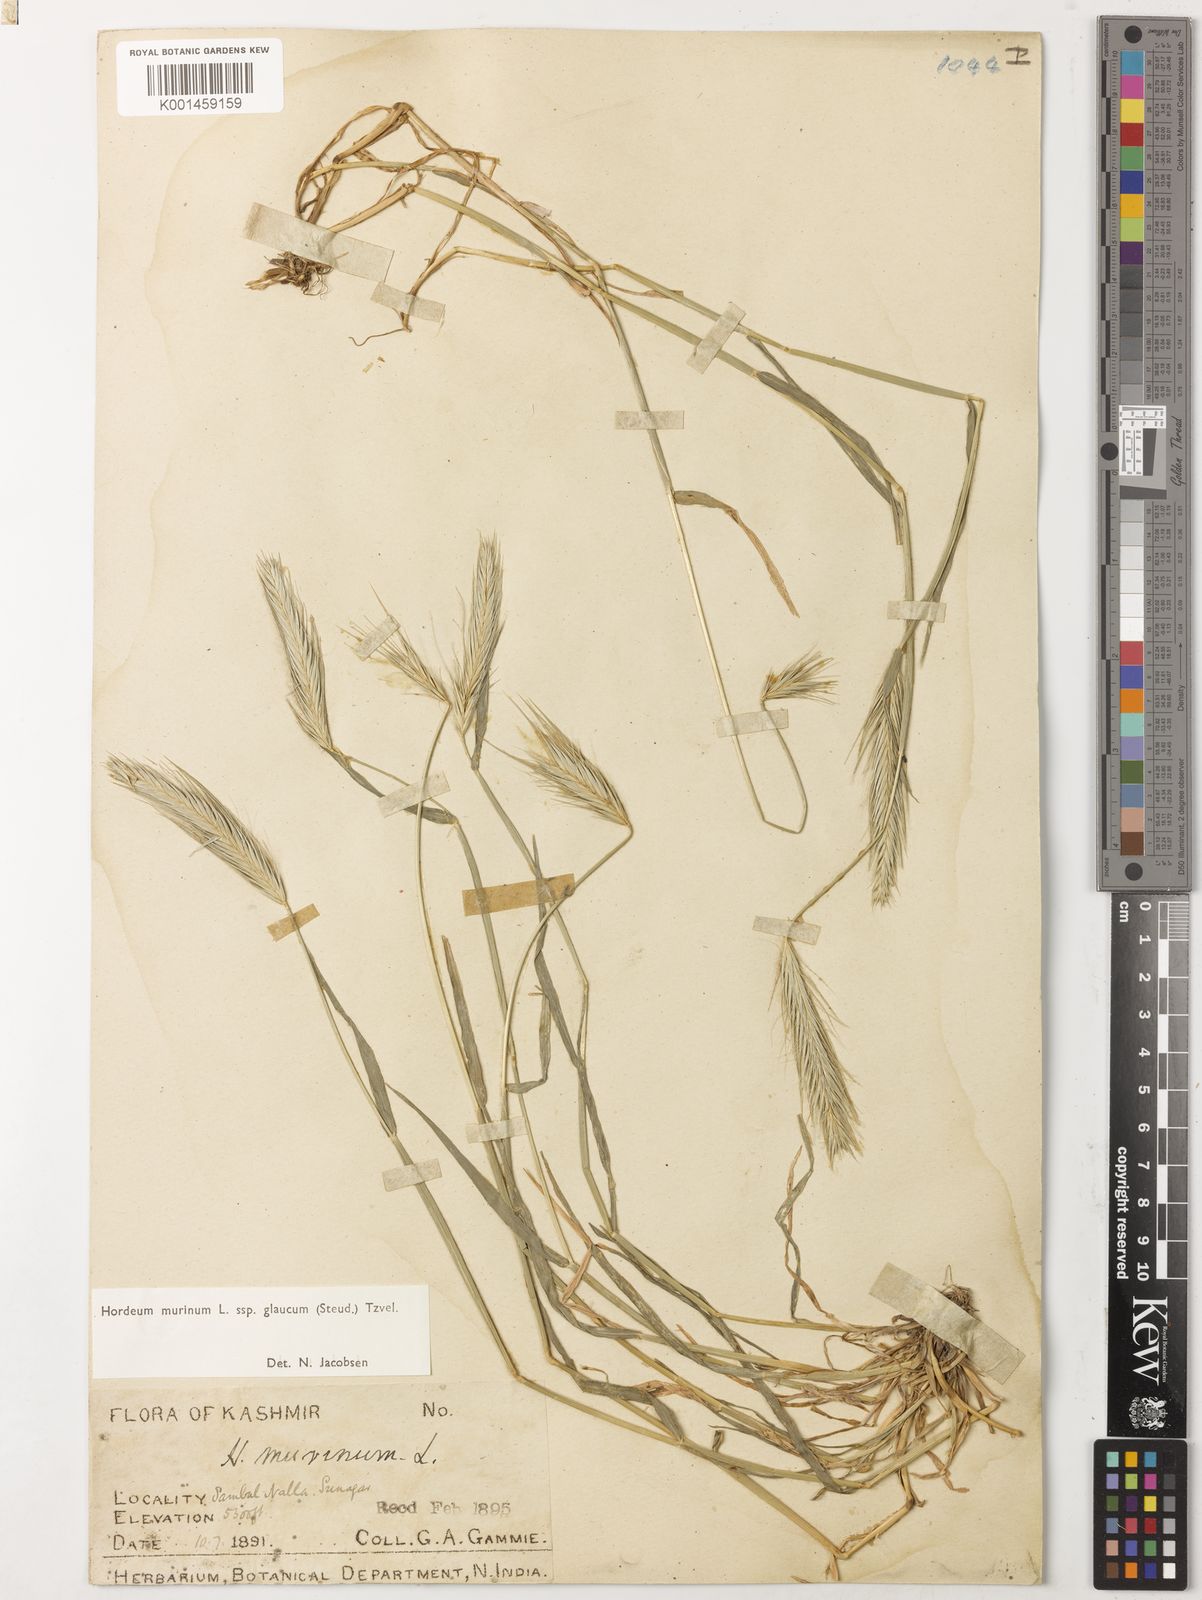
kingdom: Plantae
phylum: Tracheophyta
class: Liliopsida
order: Poales
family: Poaceae
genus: Hordeum
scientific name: Hordeum murinum
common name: Wall barley
